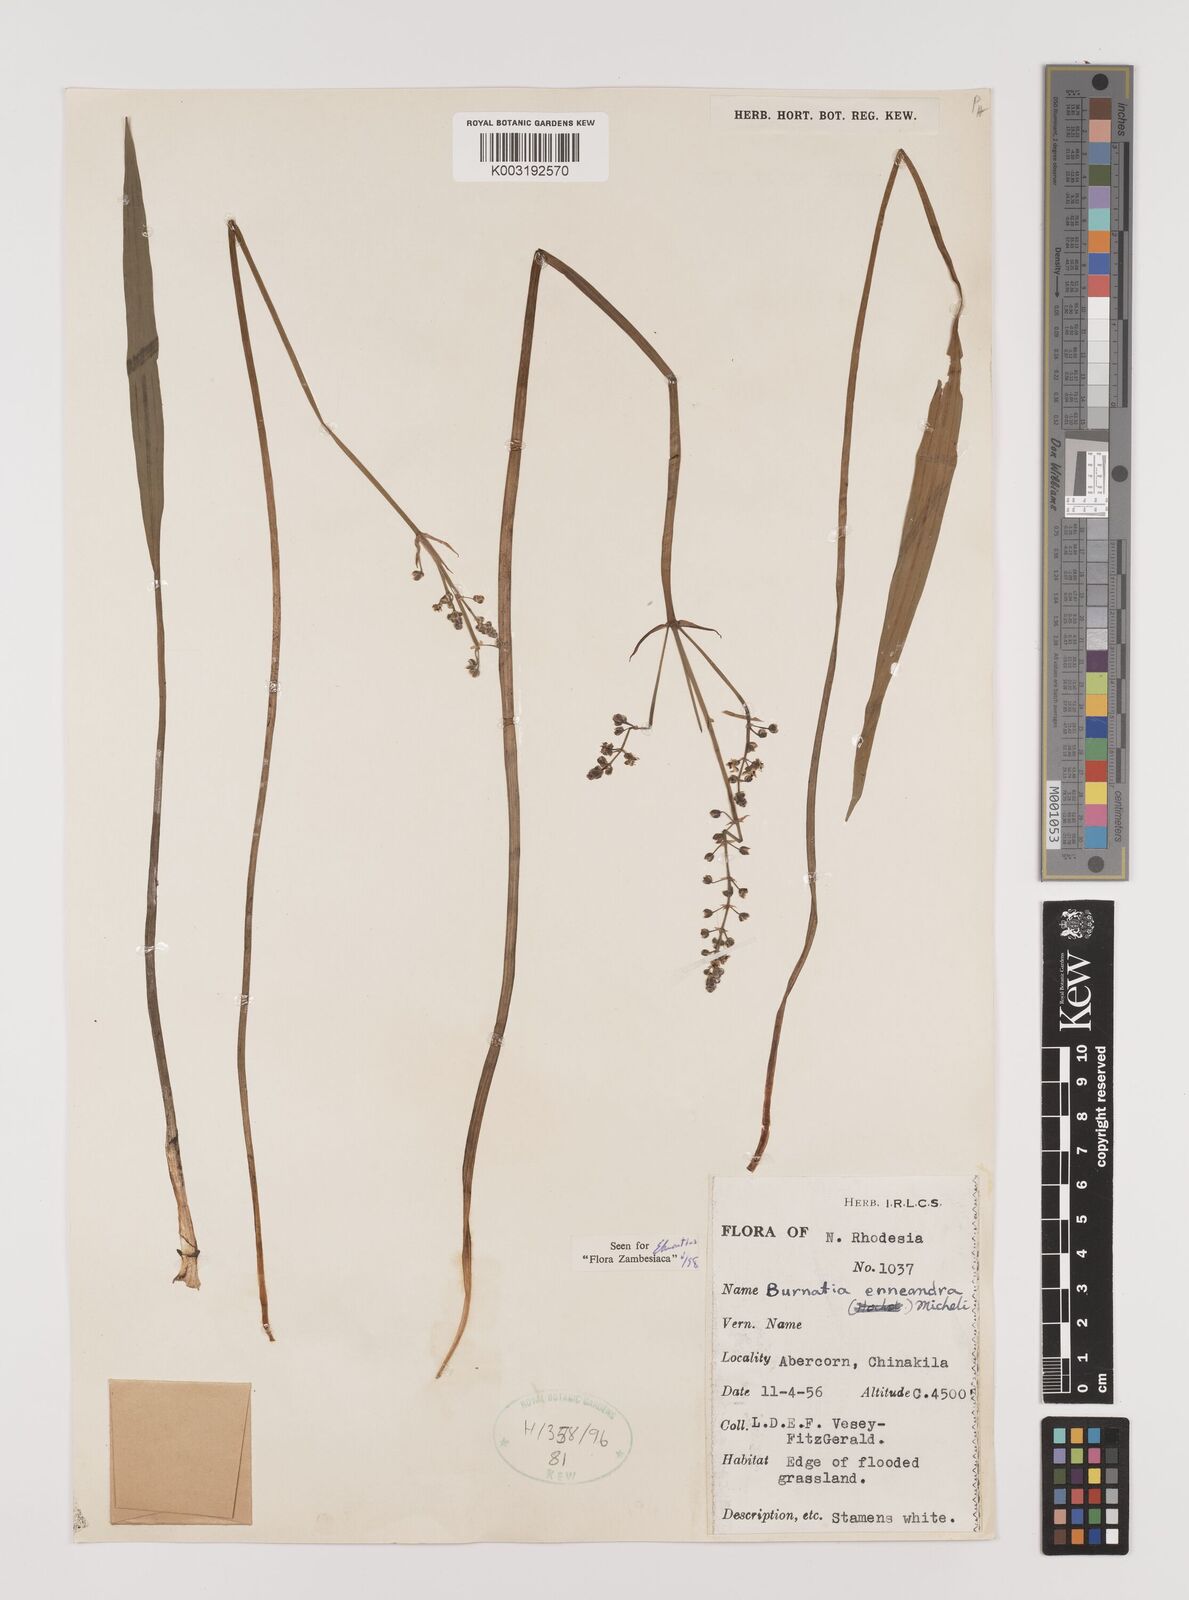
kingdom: Plantae
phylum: Tracheophyta
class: Liliopsida
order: Alismatales
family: Alismataceae
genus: Burnatia
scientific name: Burnatia enneandra
